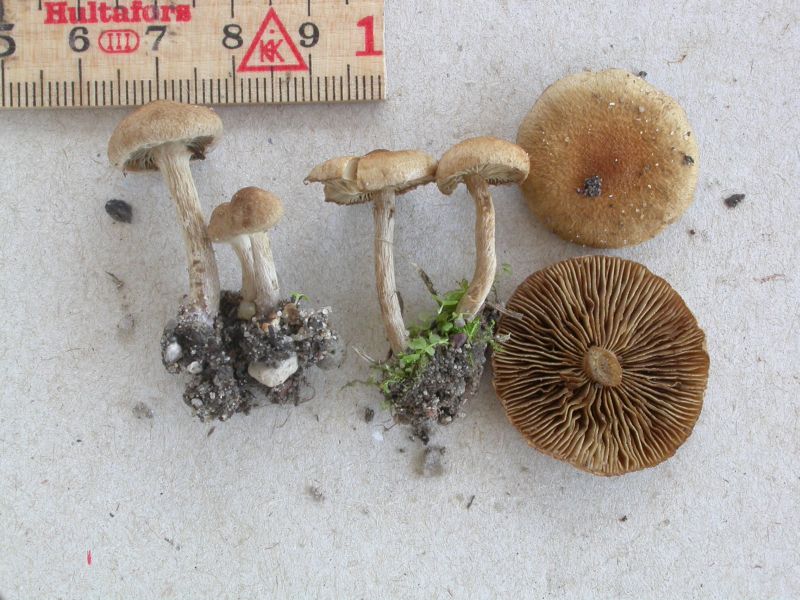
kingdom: Fungi
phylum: Basidiomycota
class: Agaricomycetes
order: Agaricales
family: Inocybaceae
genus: Inocybe
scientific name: Inocybe dulcamara
